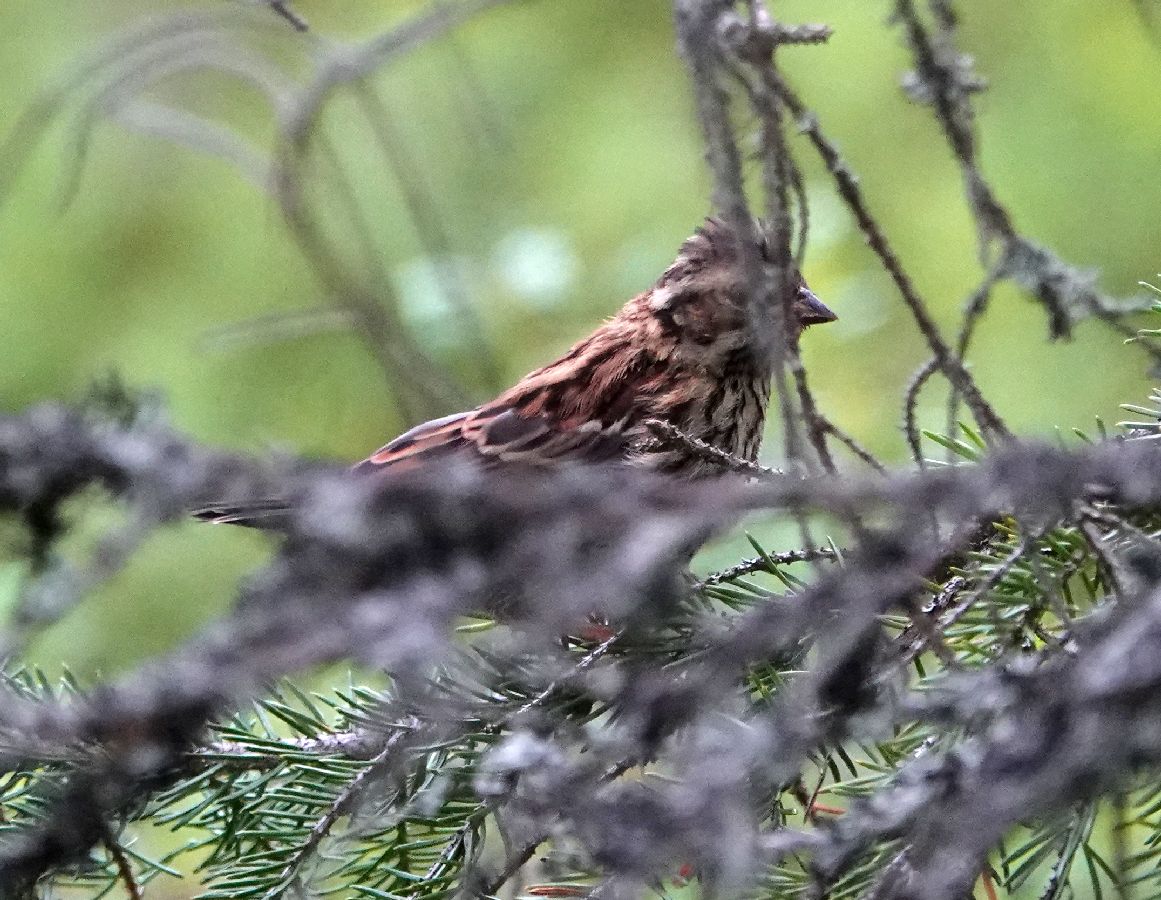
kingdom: Animalia
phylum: Chordata
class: Aves
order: Passeriformes
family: Emberizidae
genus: Emberiza
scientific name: Emberiza pusilla
